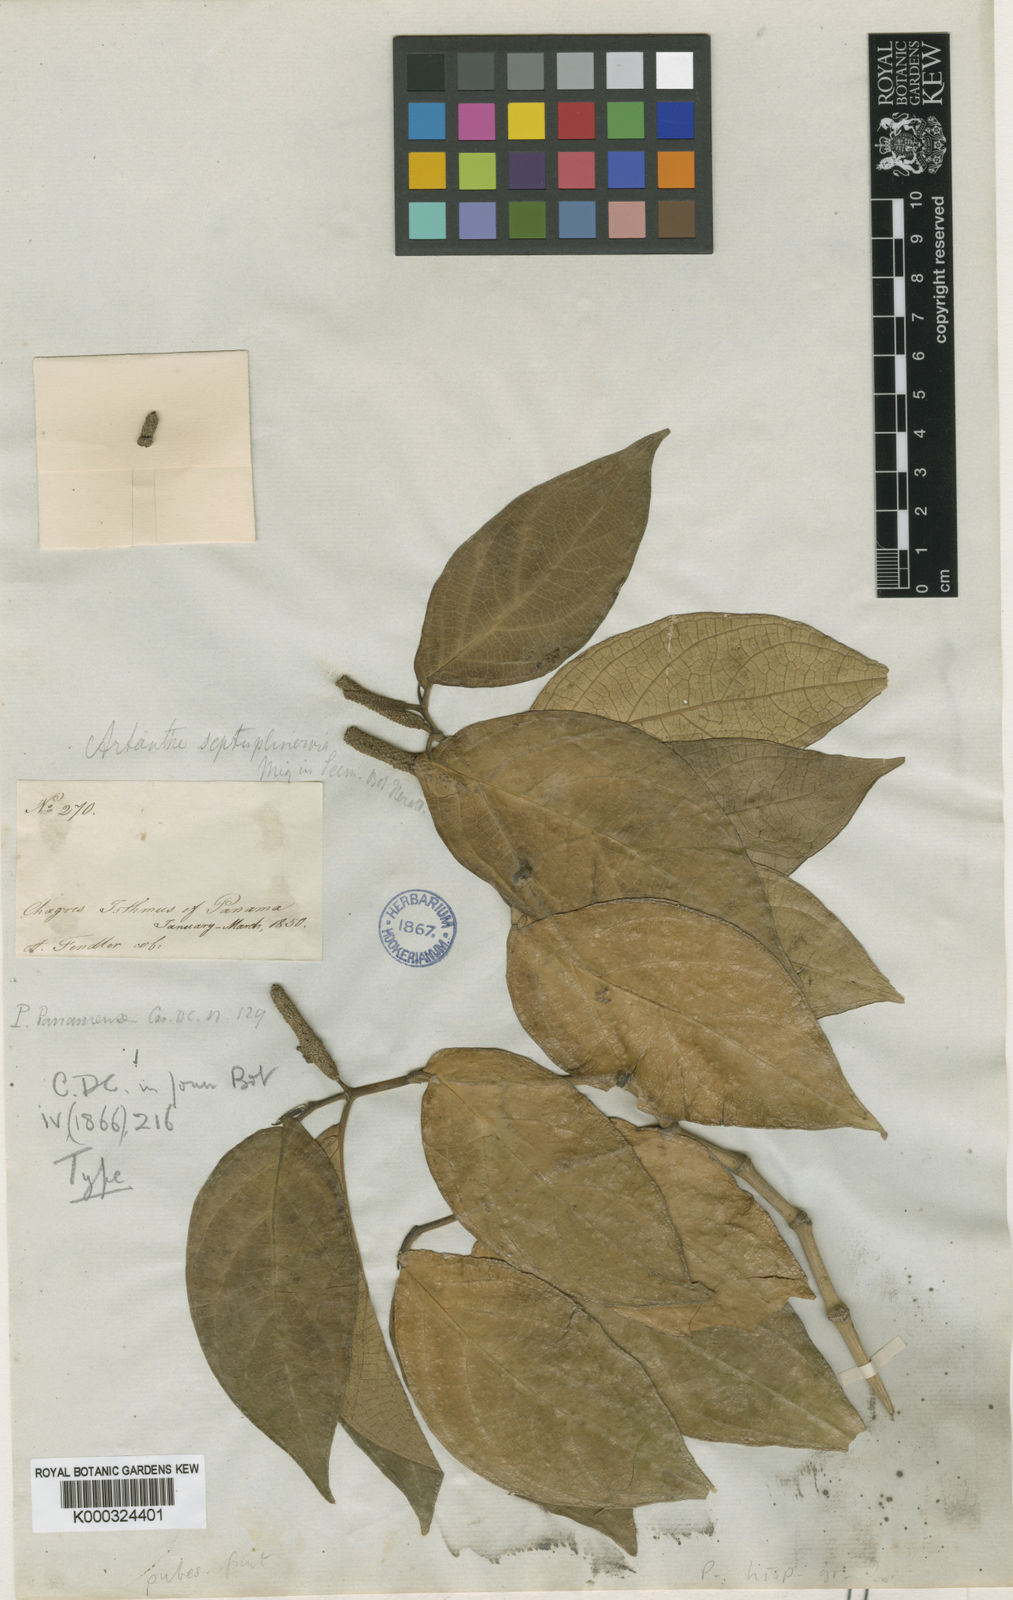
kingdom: Plantae
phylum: Tracheophyta
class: Magnoliopsida
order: Piperales
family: Piperaceae
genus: Piper
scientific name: Piper septuplinervium
